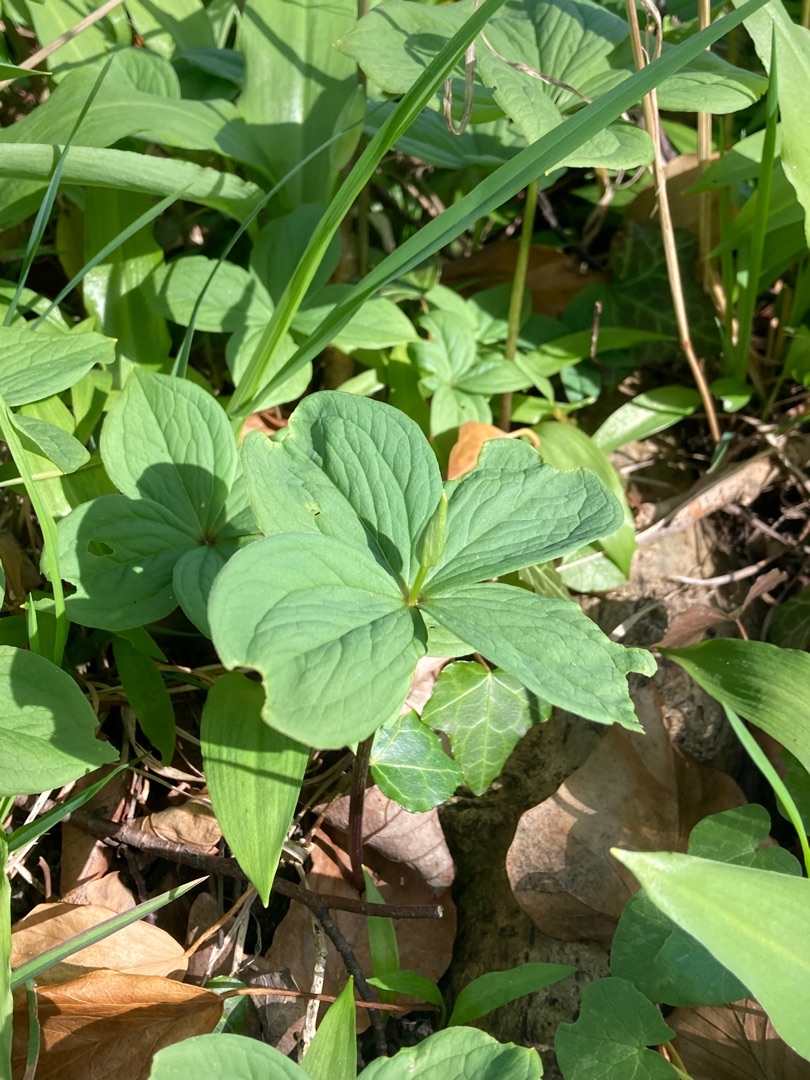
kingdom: Plantae
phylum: Tracheophyta
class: Liliopsida
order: Liliales
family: Melanthiaceae
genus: Paris
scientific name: Paris quadrifolia
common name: Firblad
